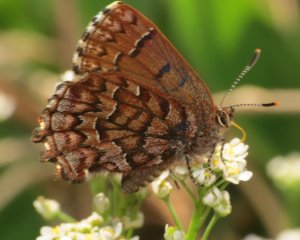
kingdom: Animalia
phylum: Arthropoda
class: Insecta
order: Lepidoptera
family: Lycaenidae
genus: Incisalia
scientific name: Incisalia niphon
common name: Eastern Pine Elfin
